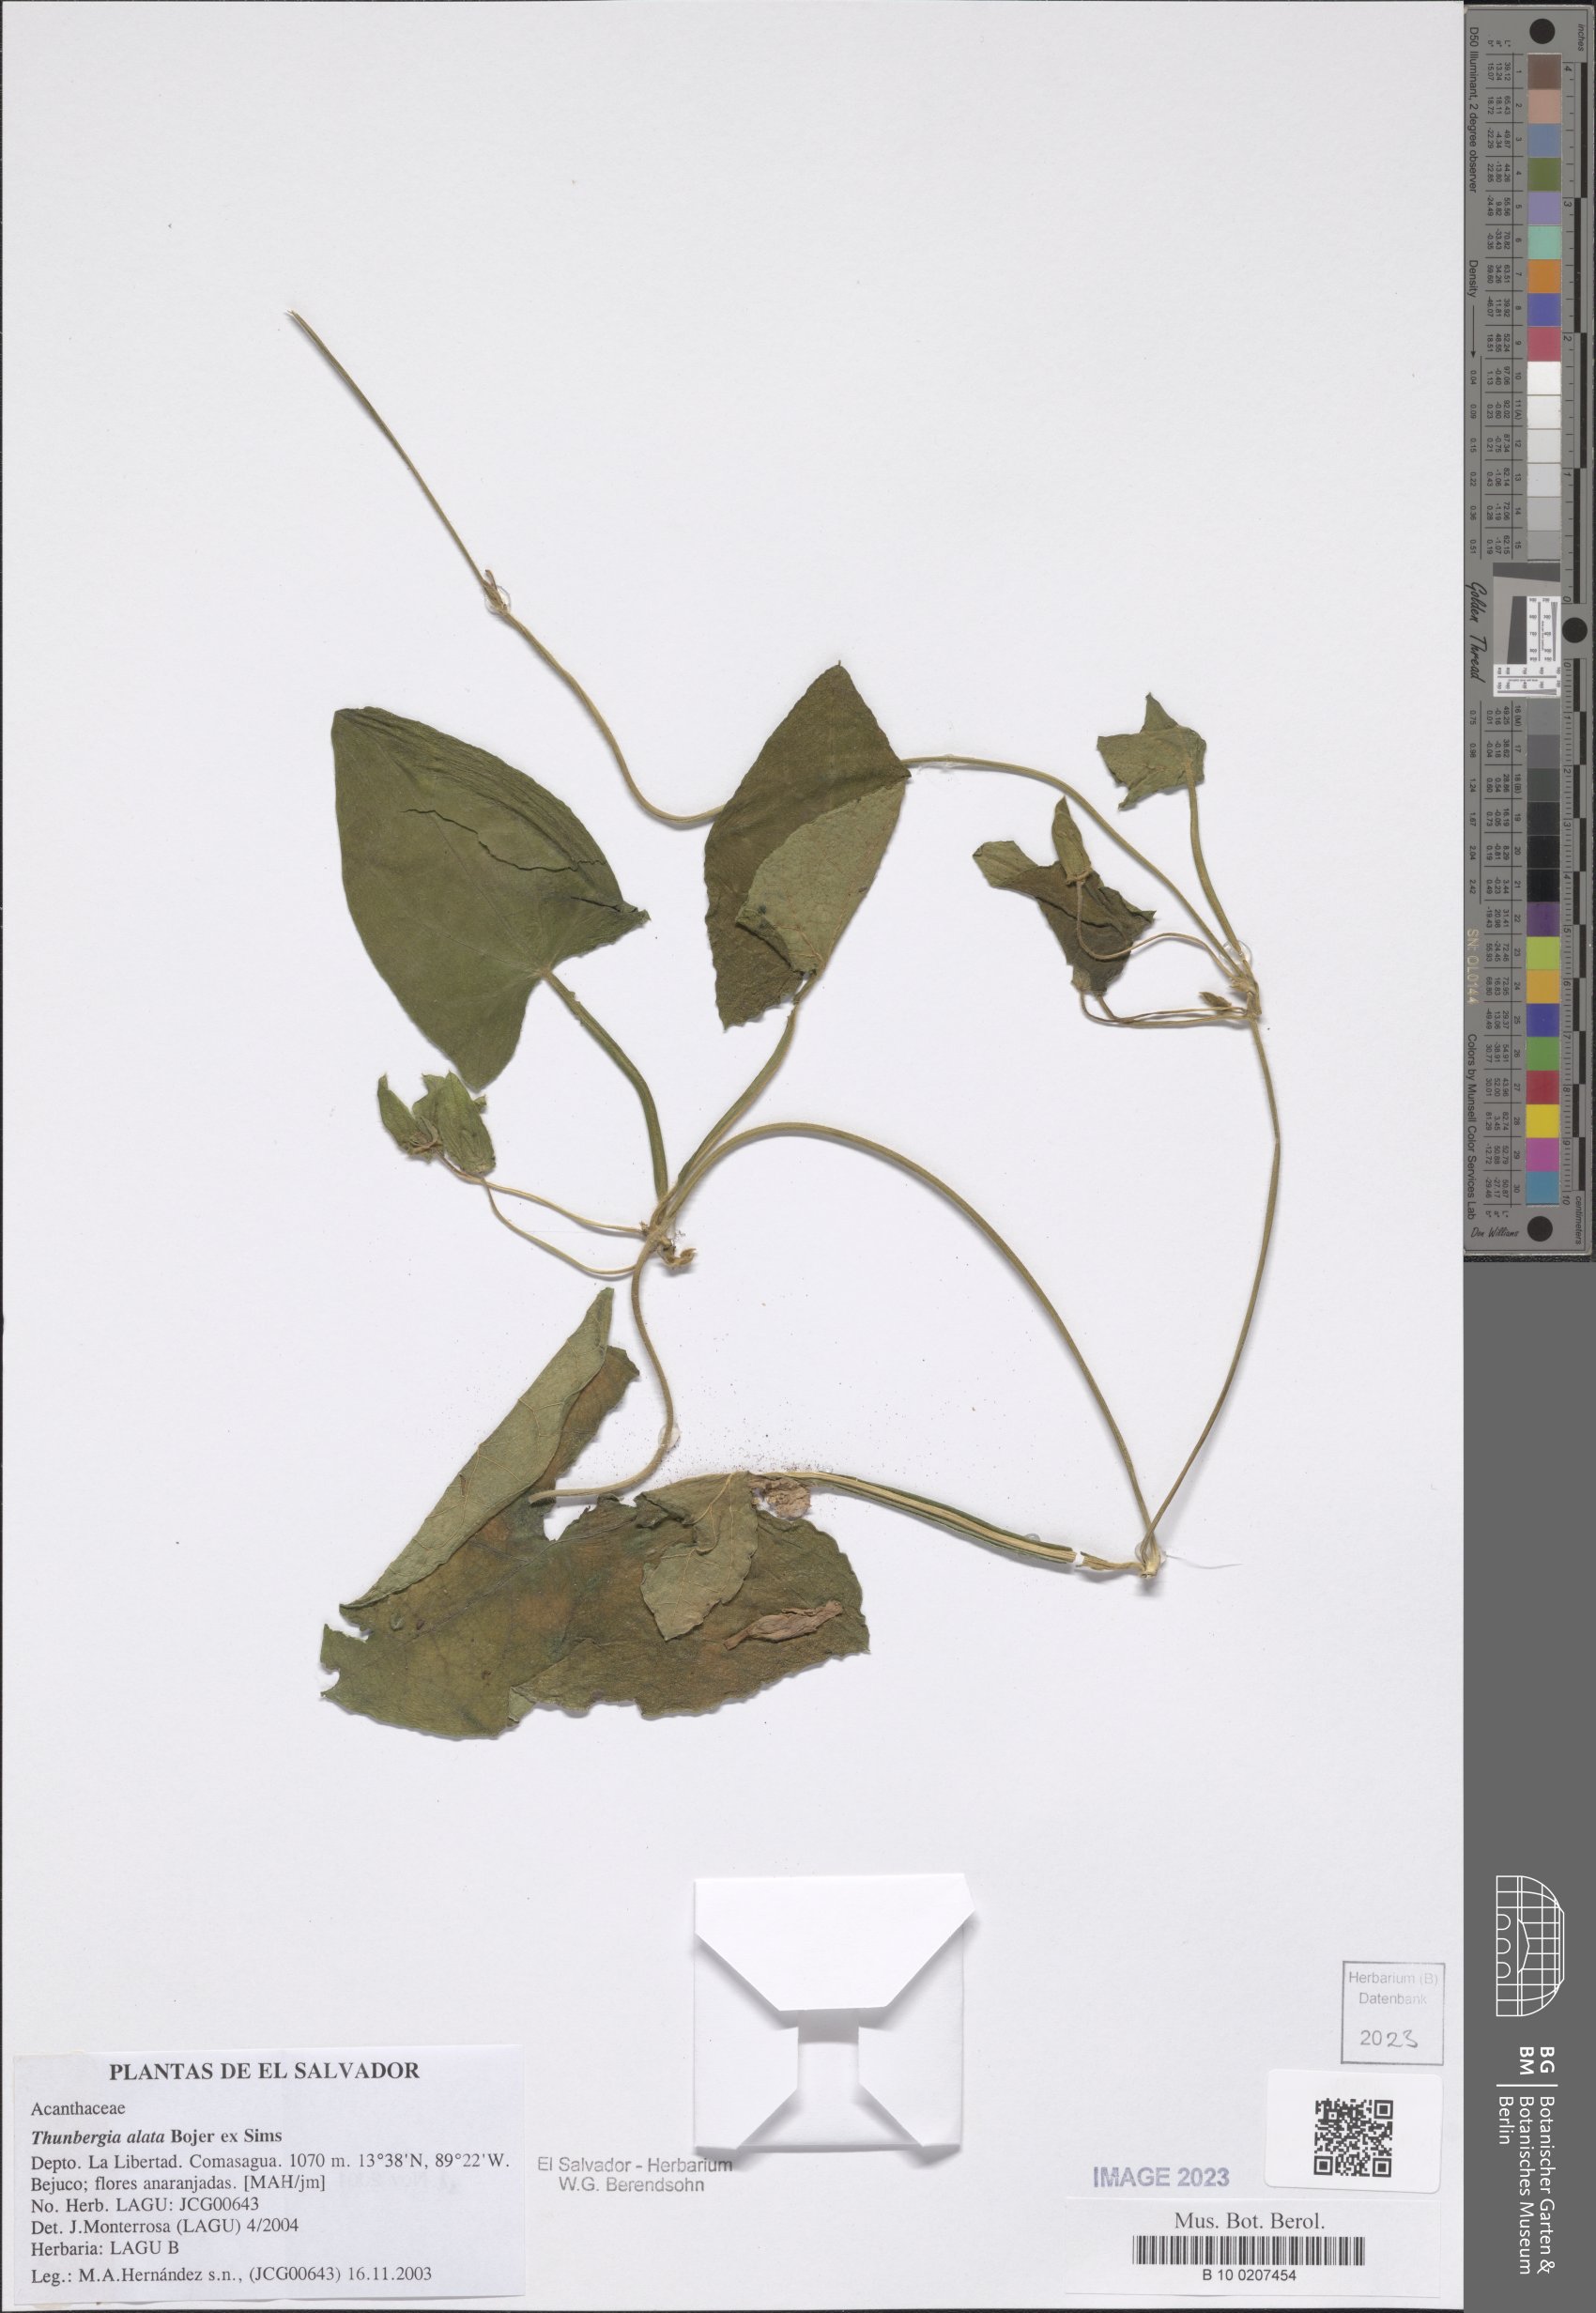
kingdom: Plantae
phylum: Tracheophyta
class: Magnoliopsida
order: Lamiales
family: Acanthaceae
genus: Thunbergia
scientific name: Thunbergia alata
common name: Blackeyed susan vine
